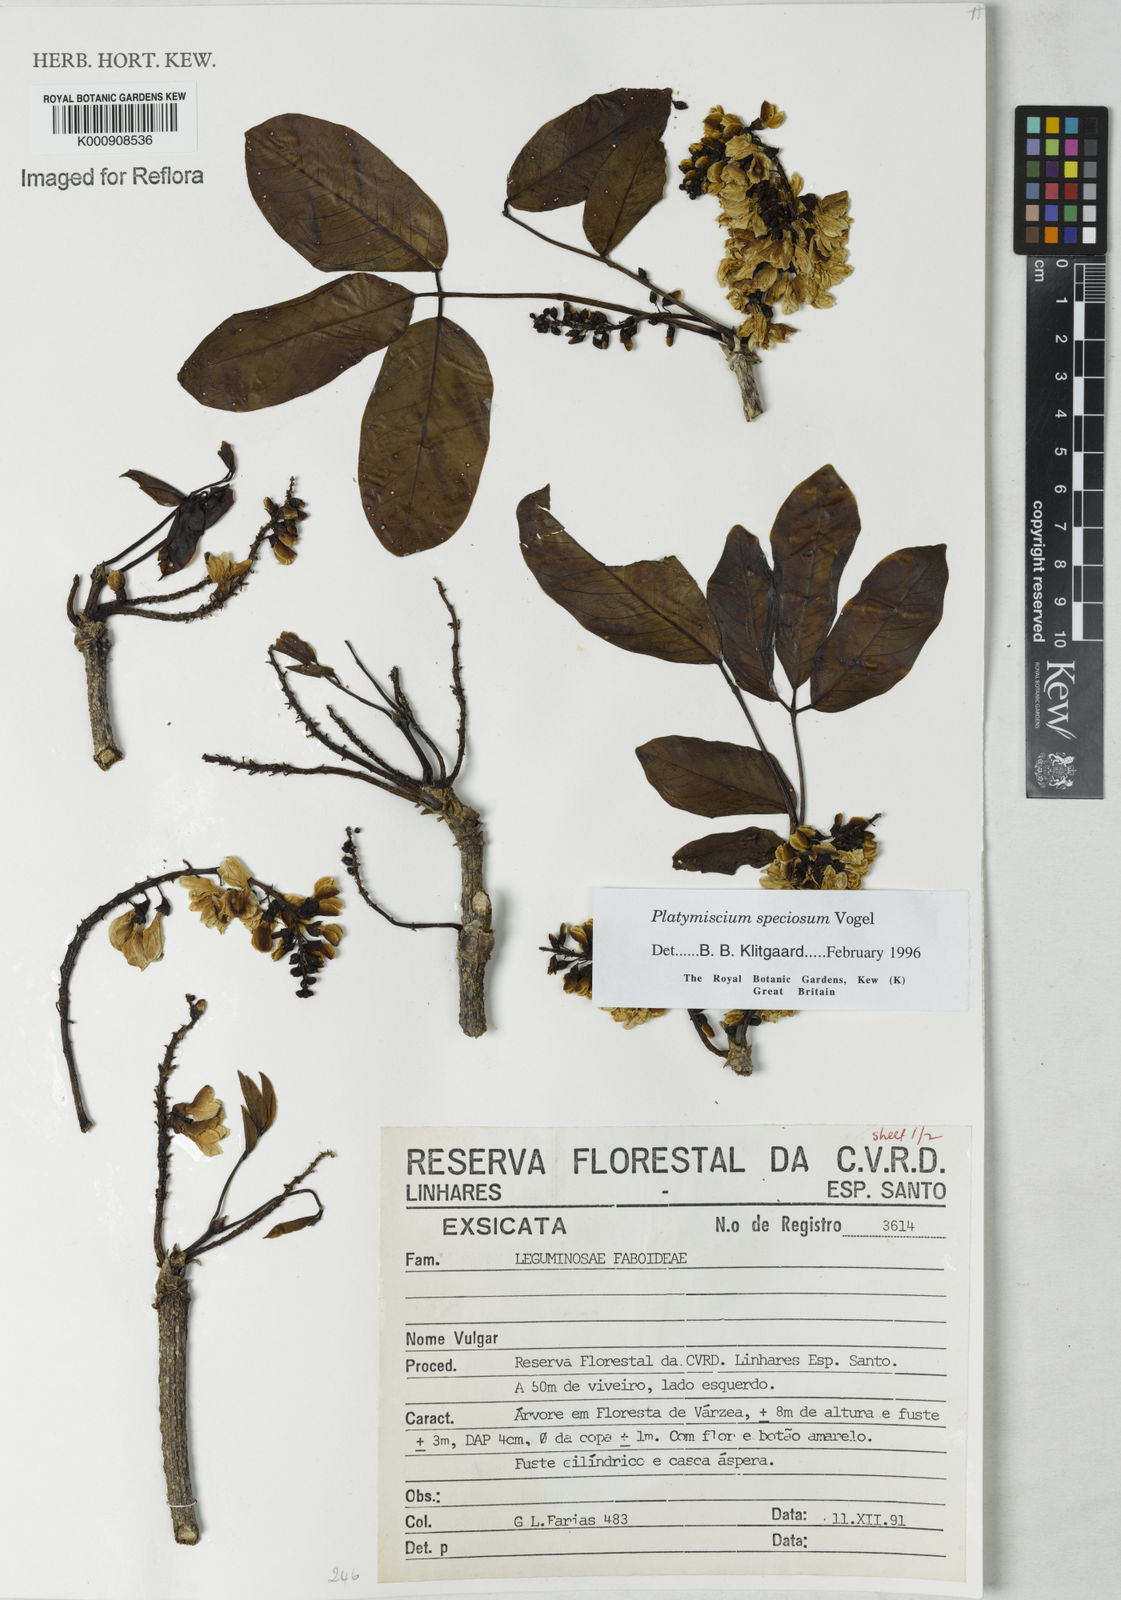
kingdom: Plantae
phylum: Tracheophyta
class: Magnoliopsida
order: Fabales
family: Fabaceae
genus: Platymiscium
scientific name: Platymiscium speciosum
